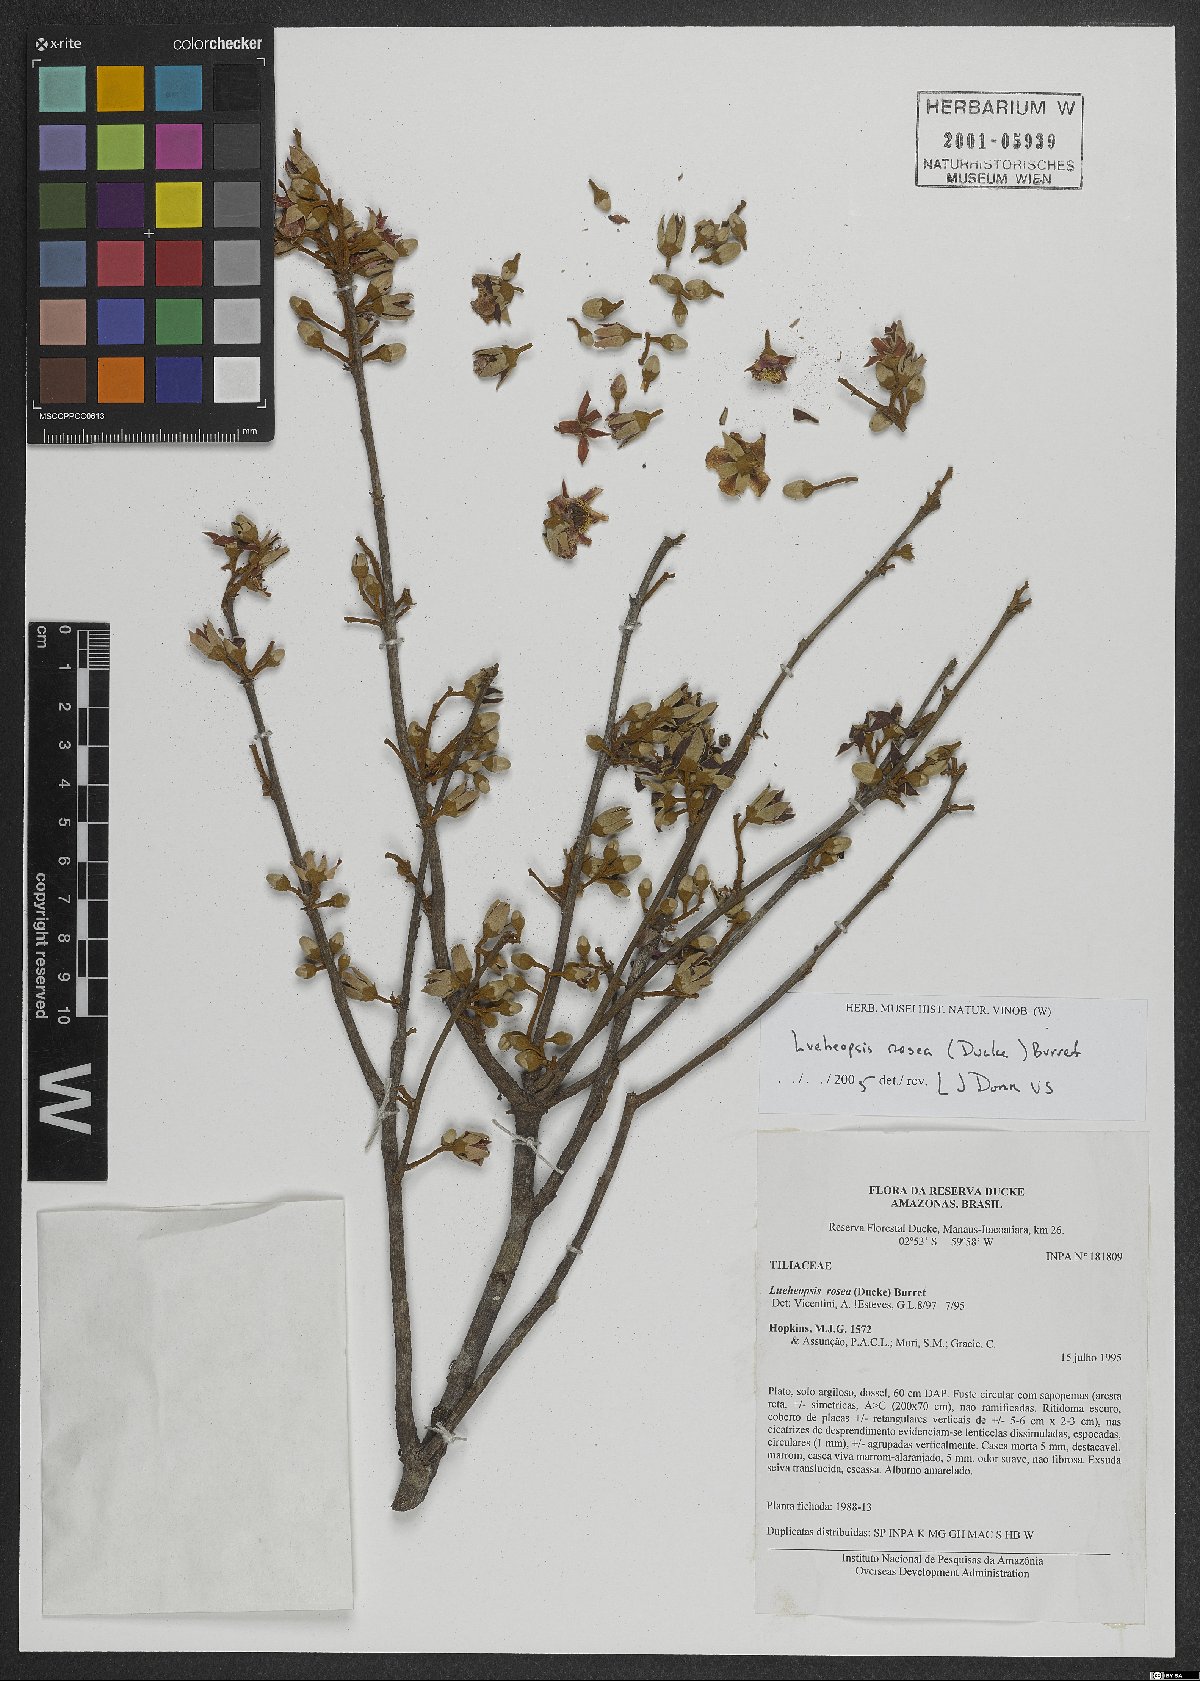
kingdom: Plantae
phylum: Tracheophyta
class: Magnoliopsida
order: Malvales
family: Malvaceae
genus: Lueheopsis
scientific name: Lueheopsis rosea
